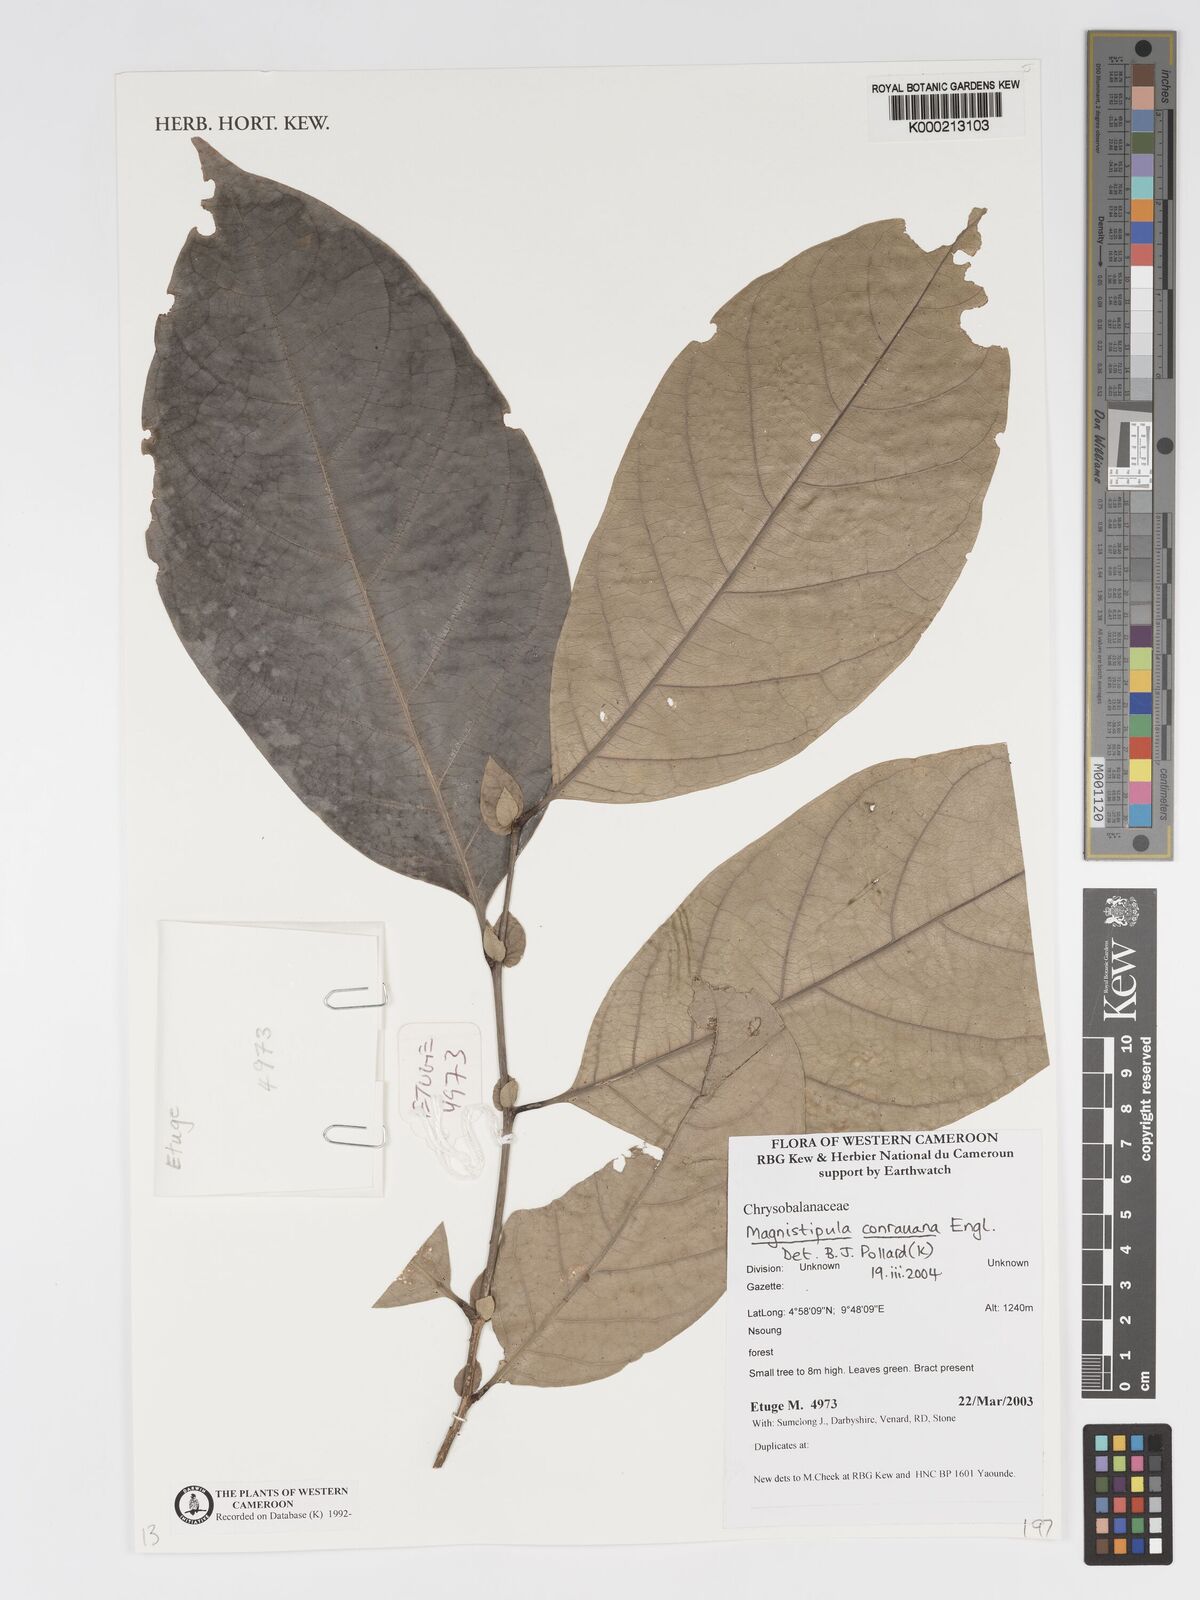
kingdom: Plantae
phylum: Tracheophyta
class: Magnoliopsida
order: Malpighiales
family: Chrysobalanaceae
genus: Magnistipula
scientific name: Magnistipula conrauana
